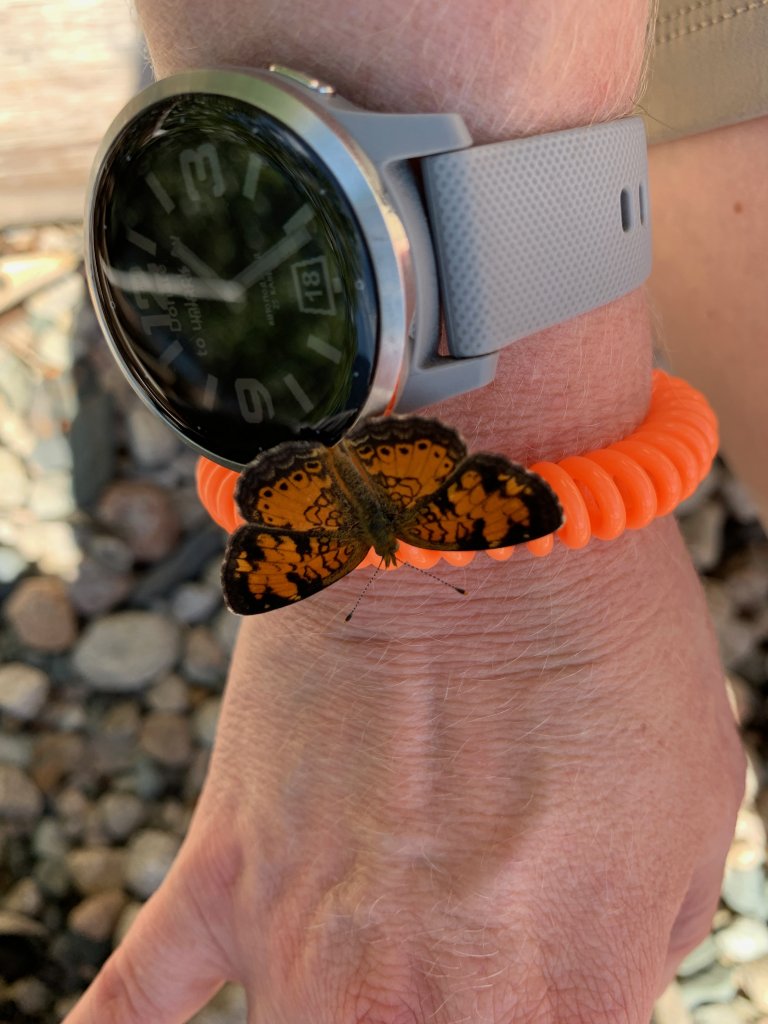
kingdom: Animalia
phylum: Arthropoda
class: Insecta
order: Lepidoptera
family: Nymphalidae
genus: Eresia
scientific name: Eresia aveyrona
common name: Mylitta Crescent
